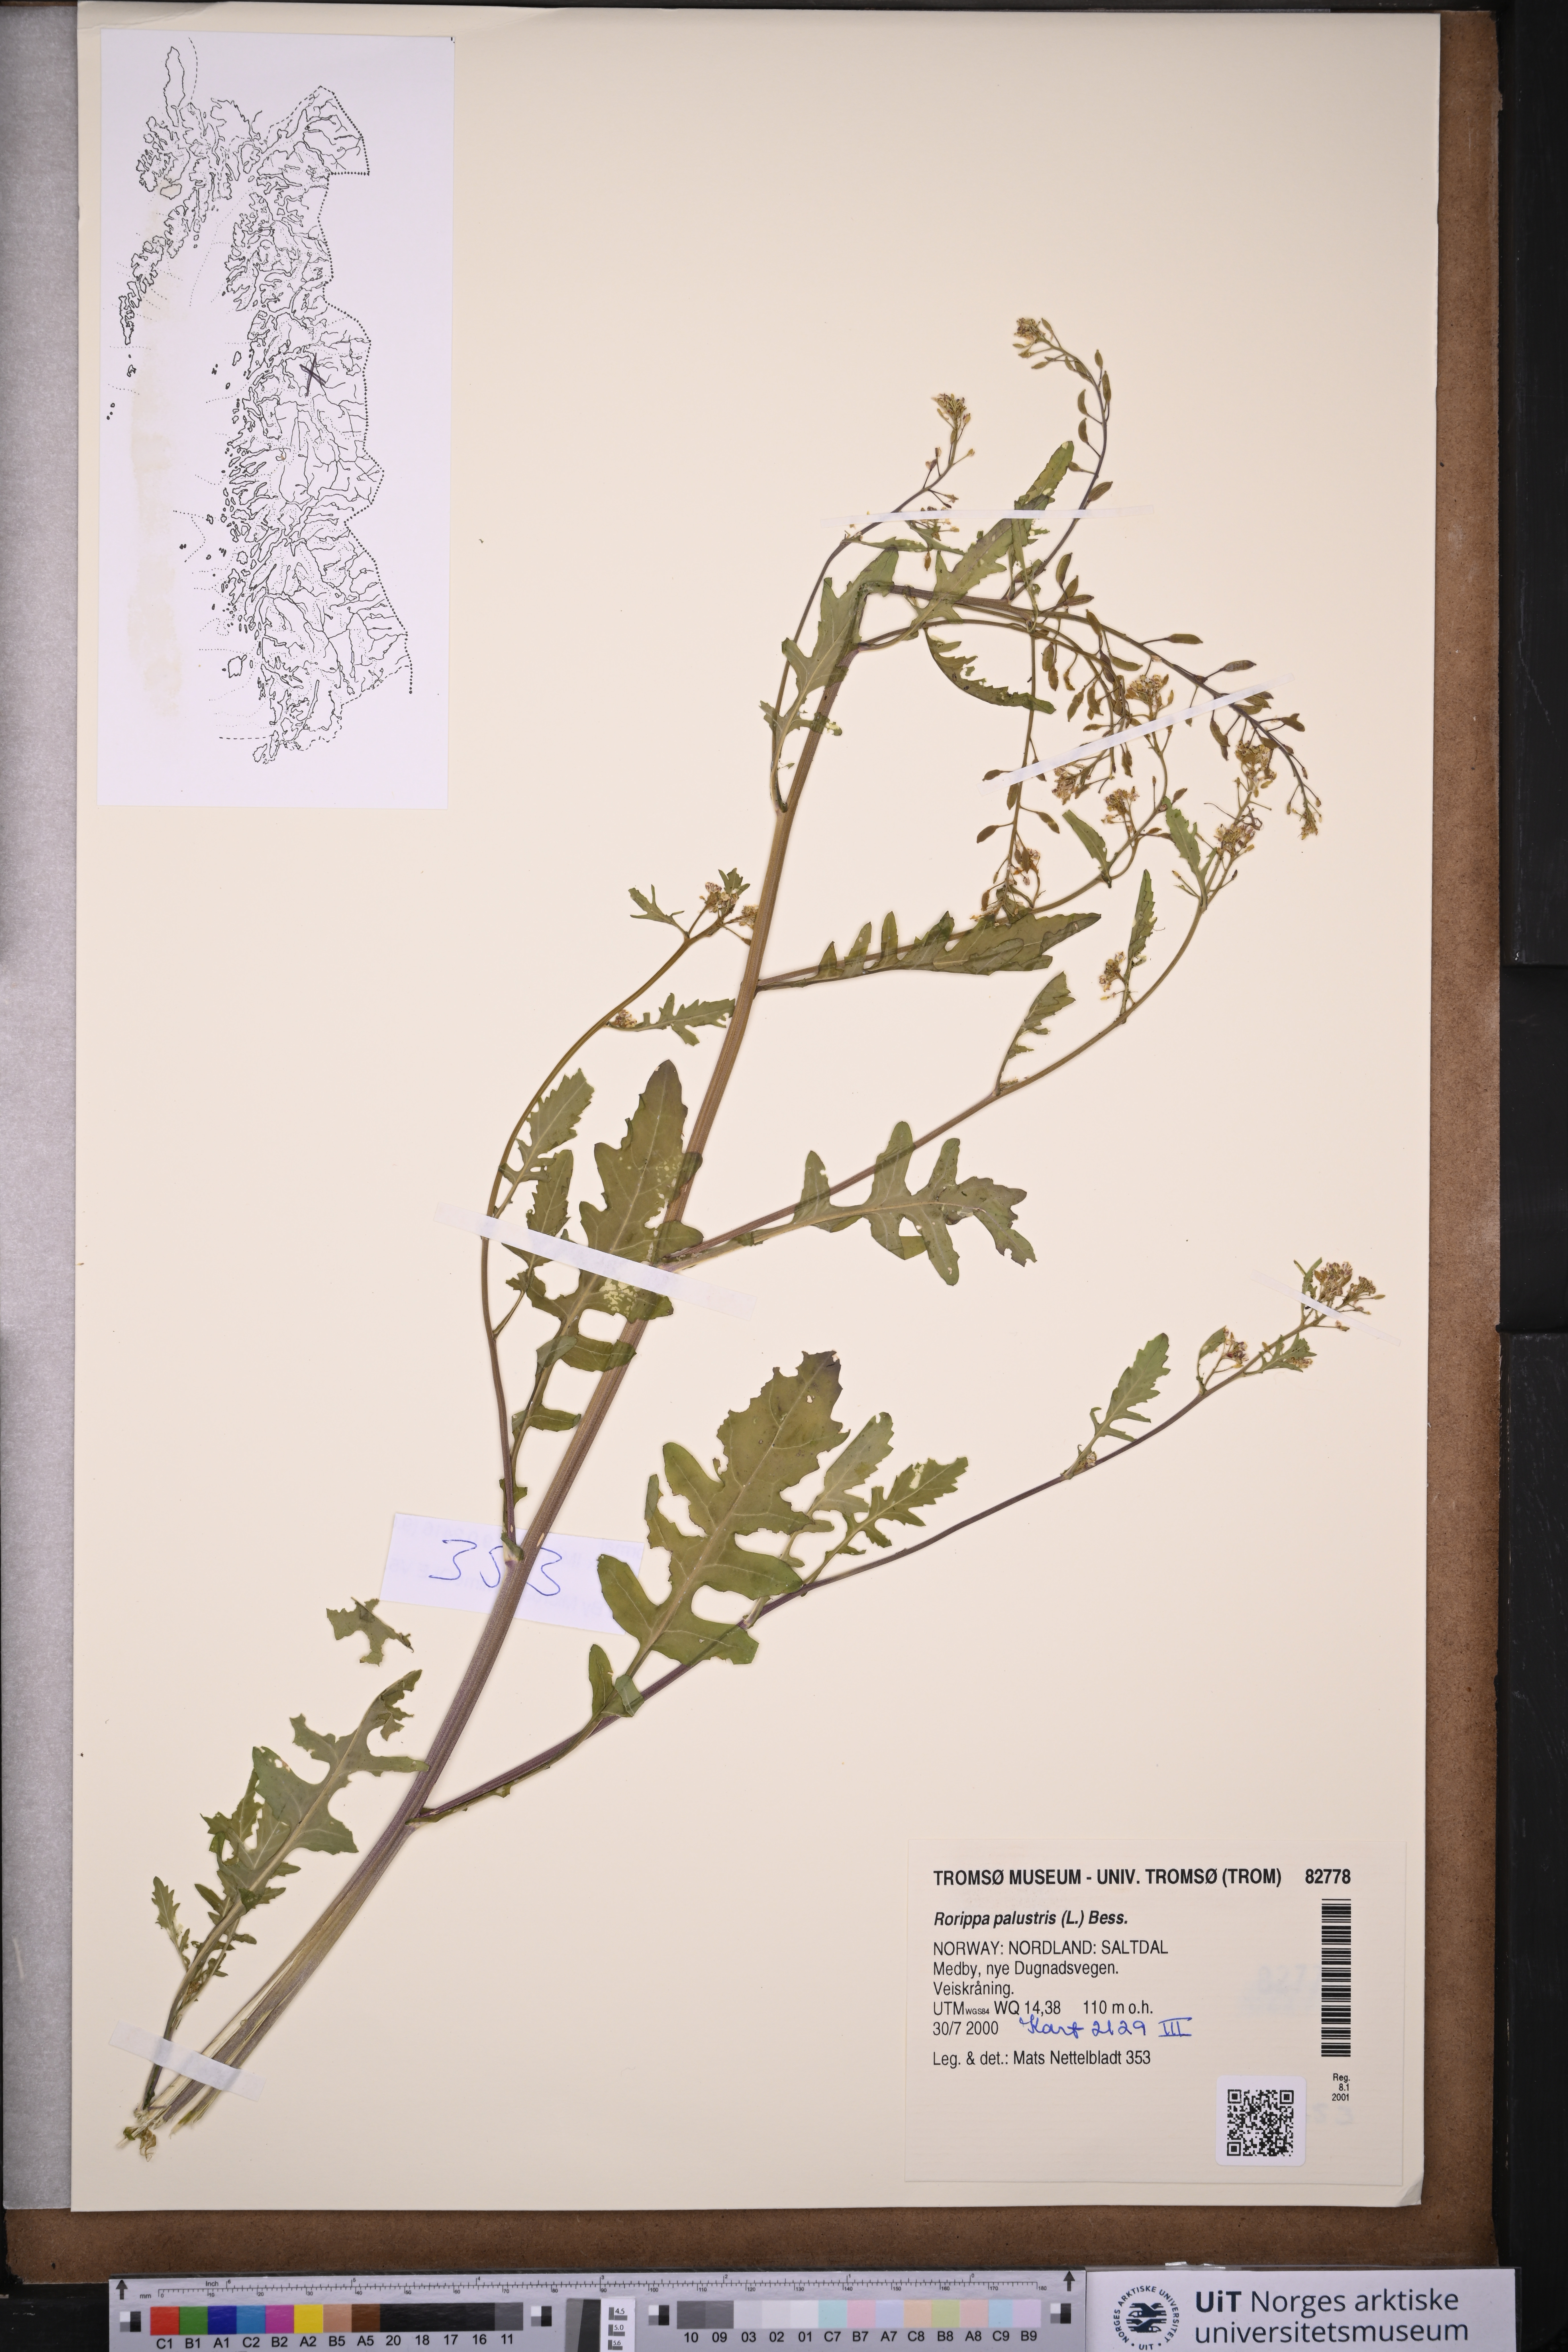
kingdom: Plantae
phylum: Tracheophyta
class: Magnoliopsida
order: Brassicales
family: Brassicaceae
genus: Rorippa
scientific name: Rorippa palustris
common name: Marsh yellow-cress
